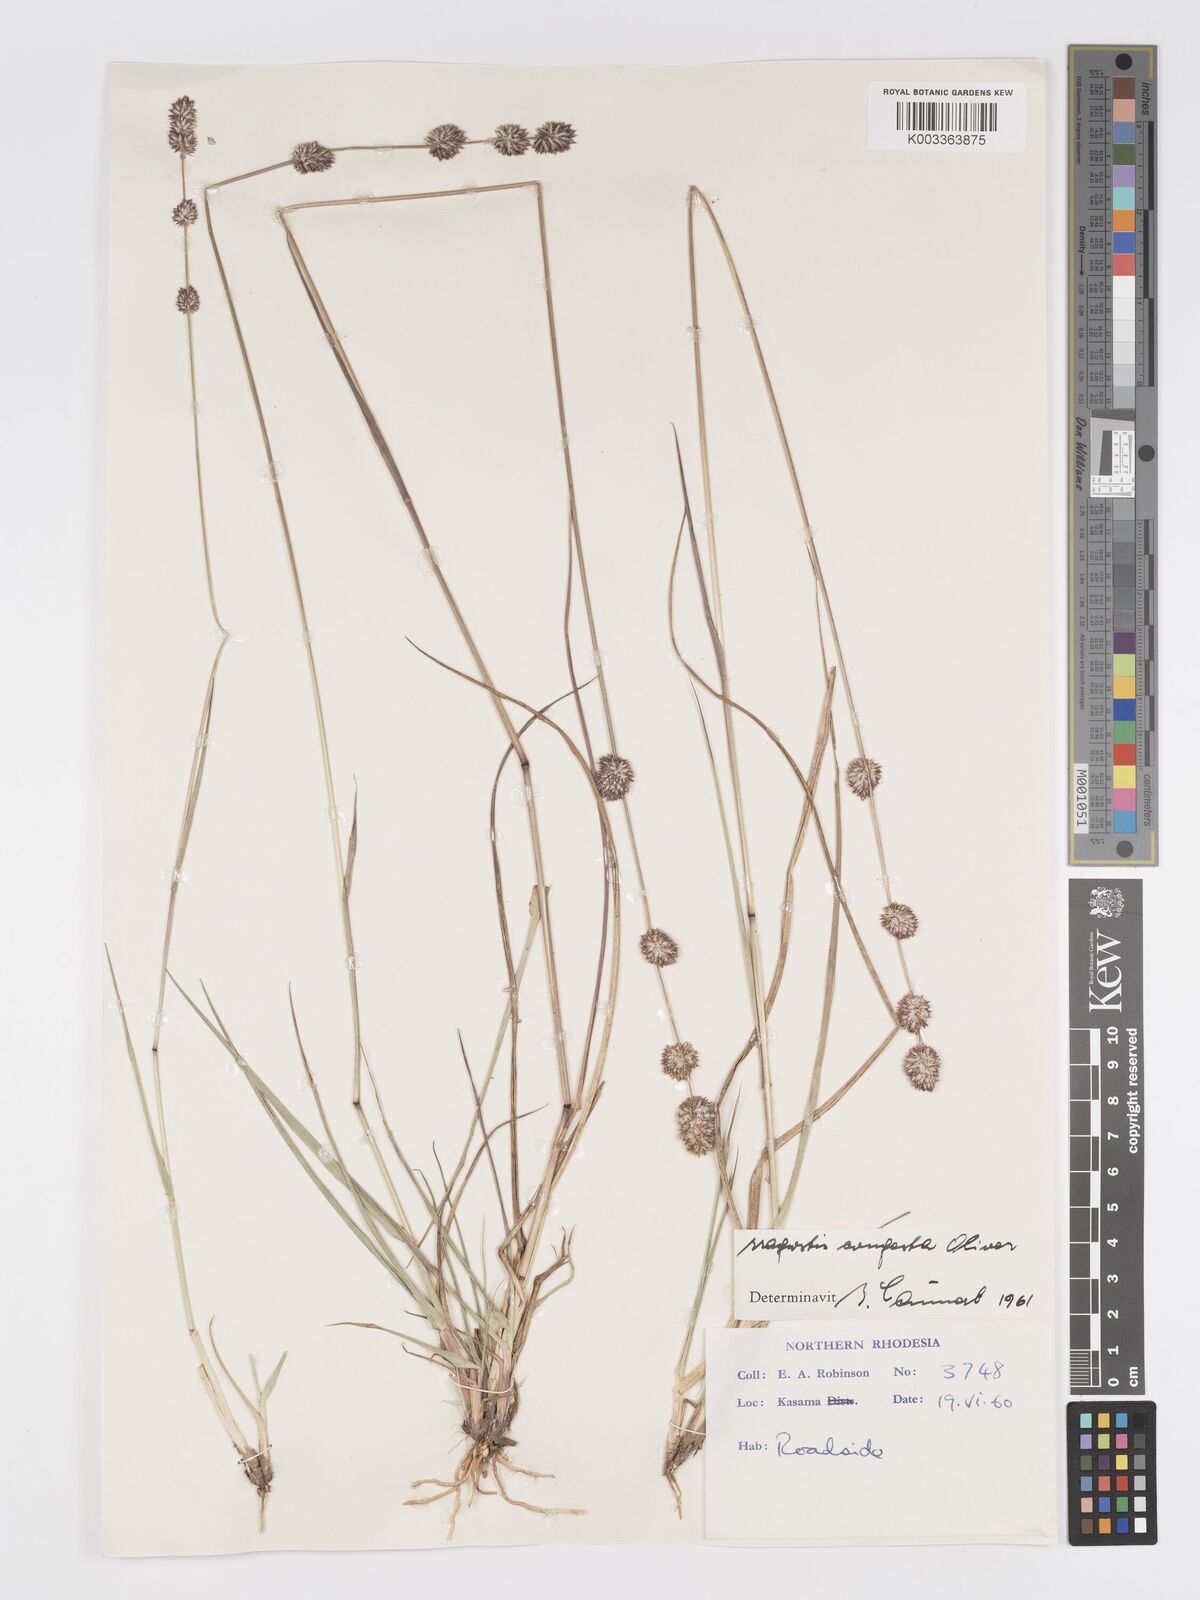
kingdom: Plantae
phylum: Tracheophyta
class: Liliopsida
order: Poales
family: Poaceae
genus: Eragrostis
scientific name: Eragrostis congesta
